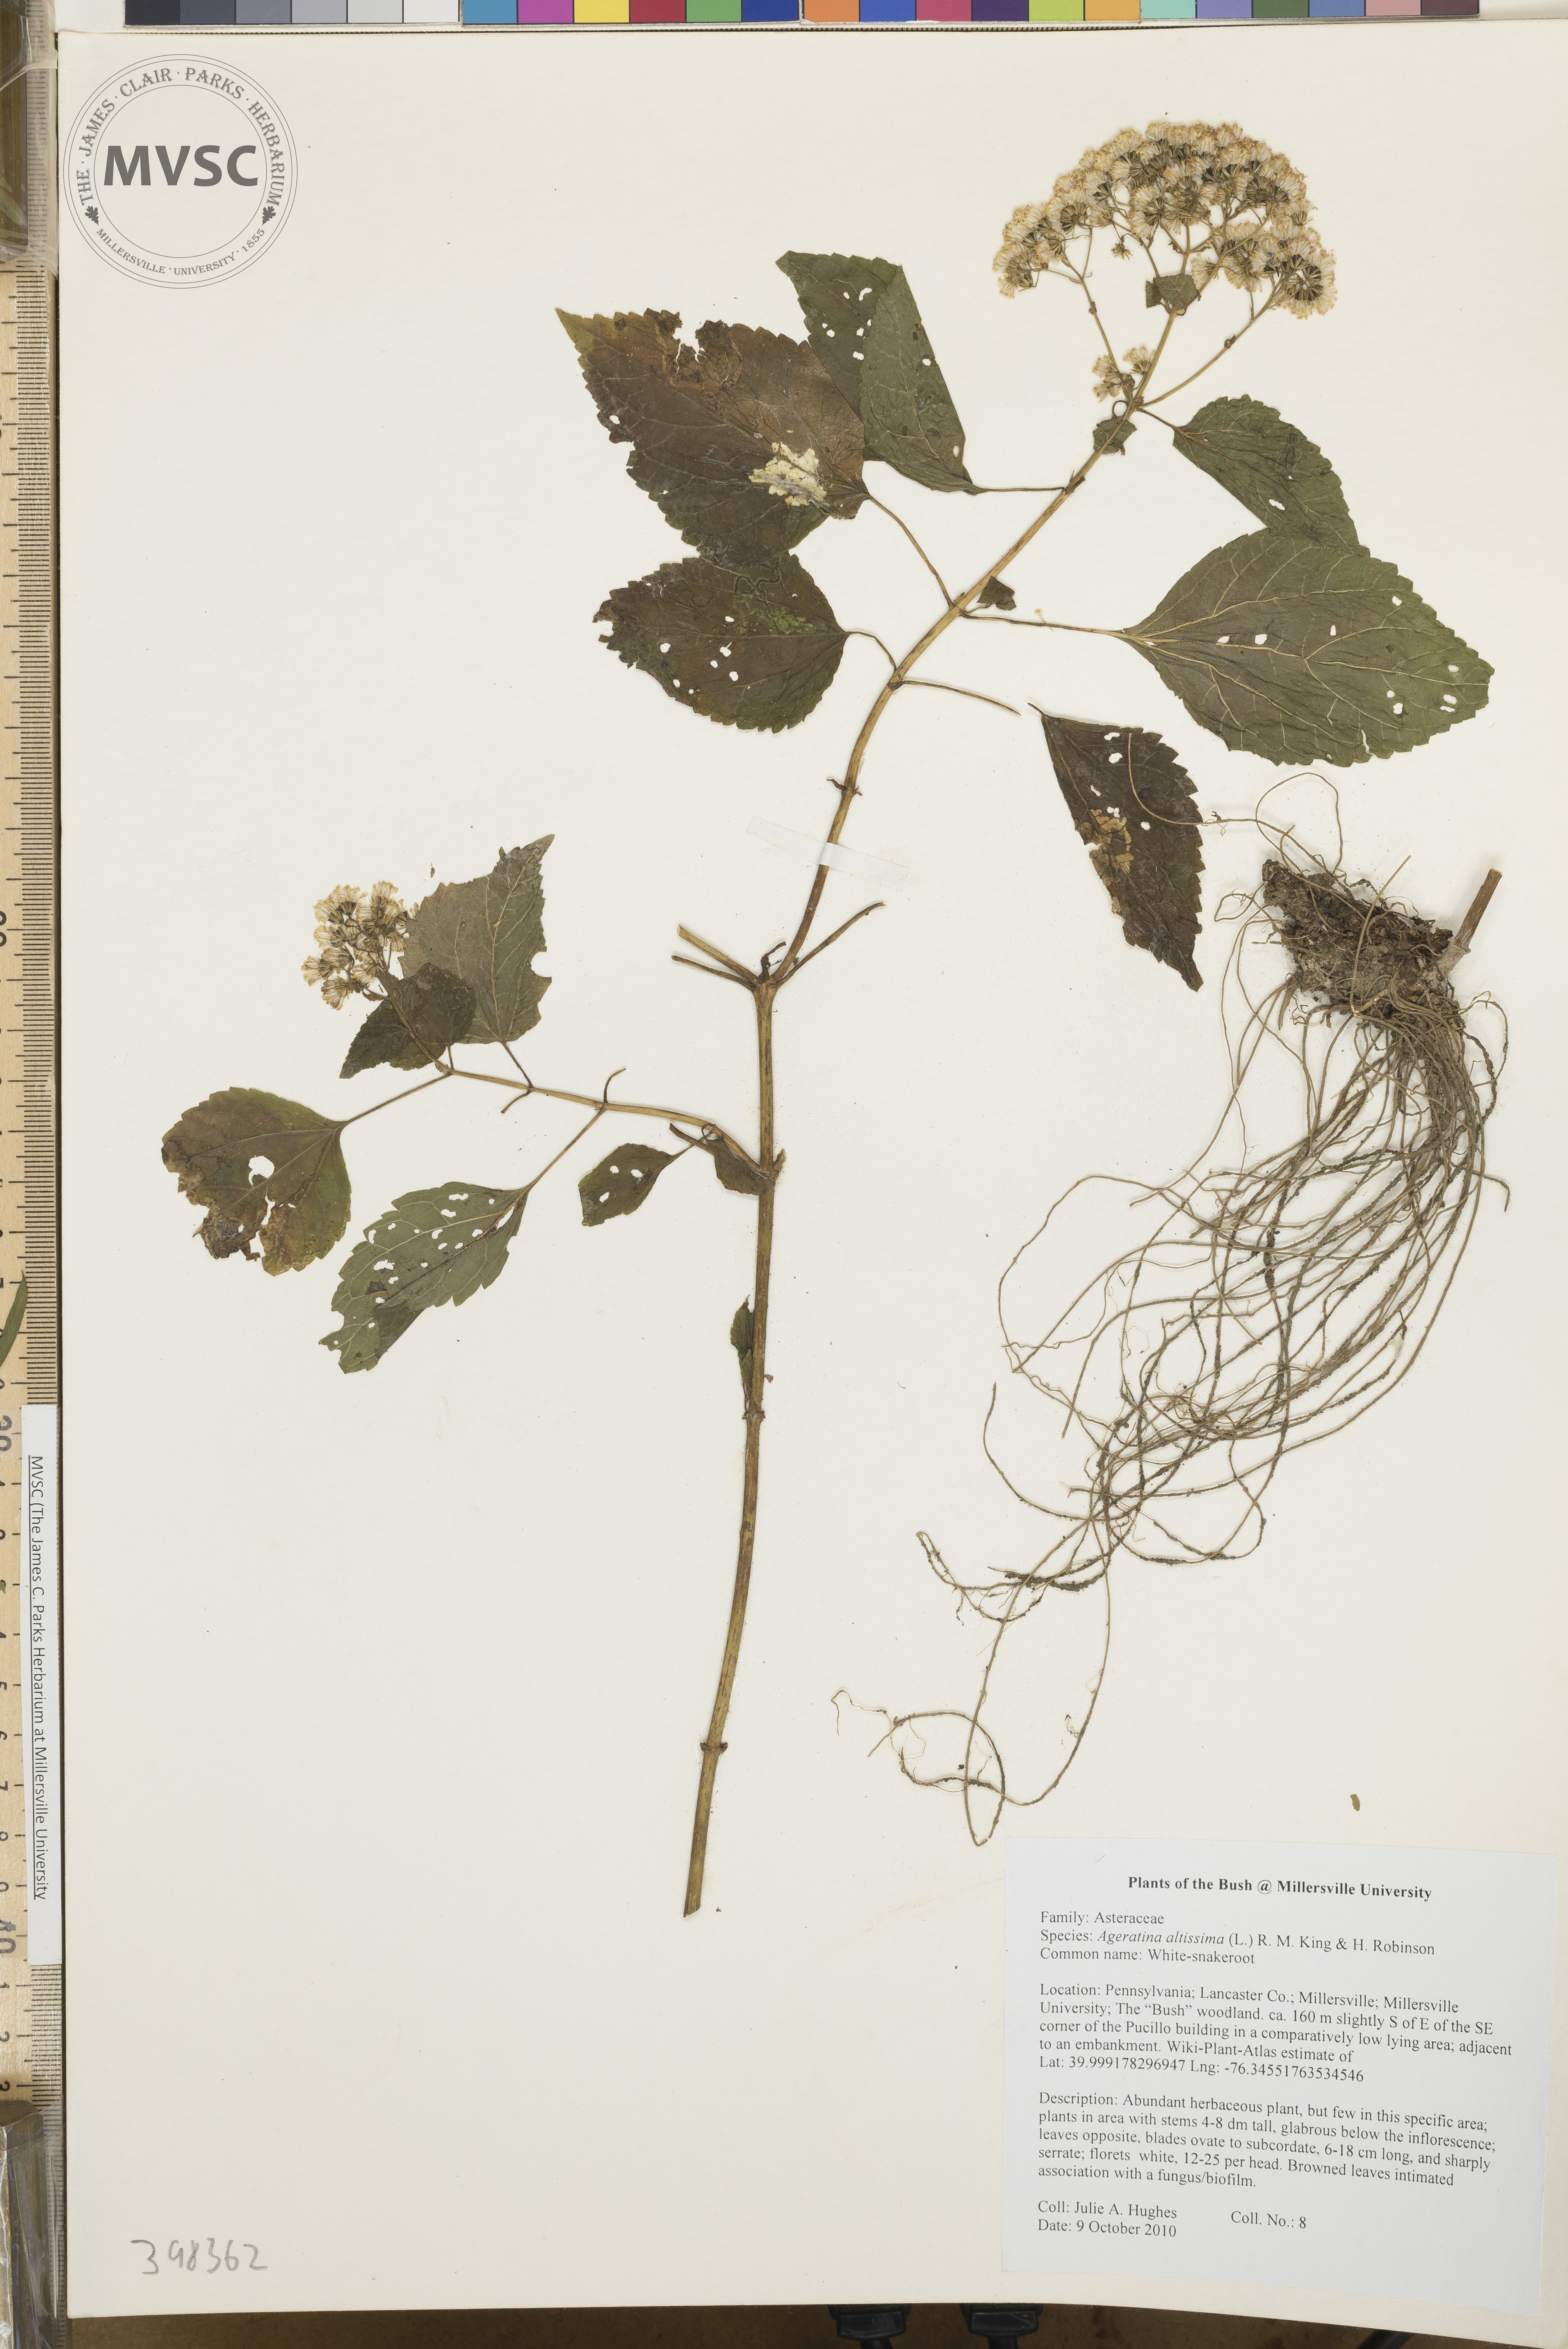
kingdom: Plantae
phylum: Tracheophyta
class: Magnoliopsida
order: Asterales
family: Asteraceae
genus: Ageratina
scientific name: Ageratina altissima
